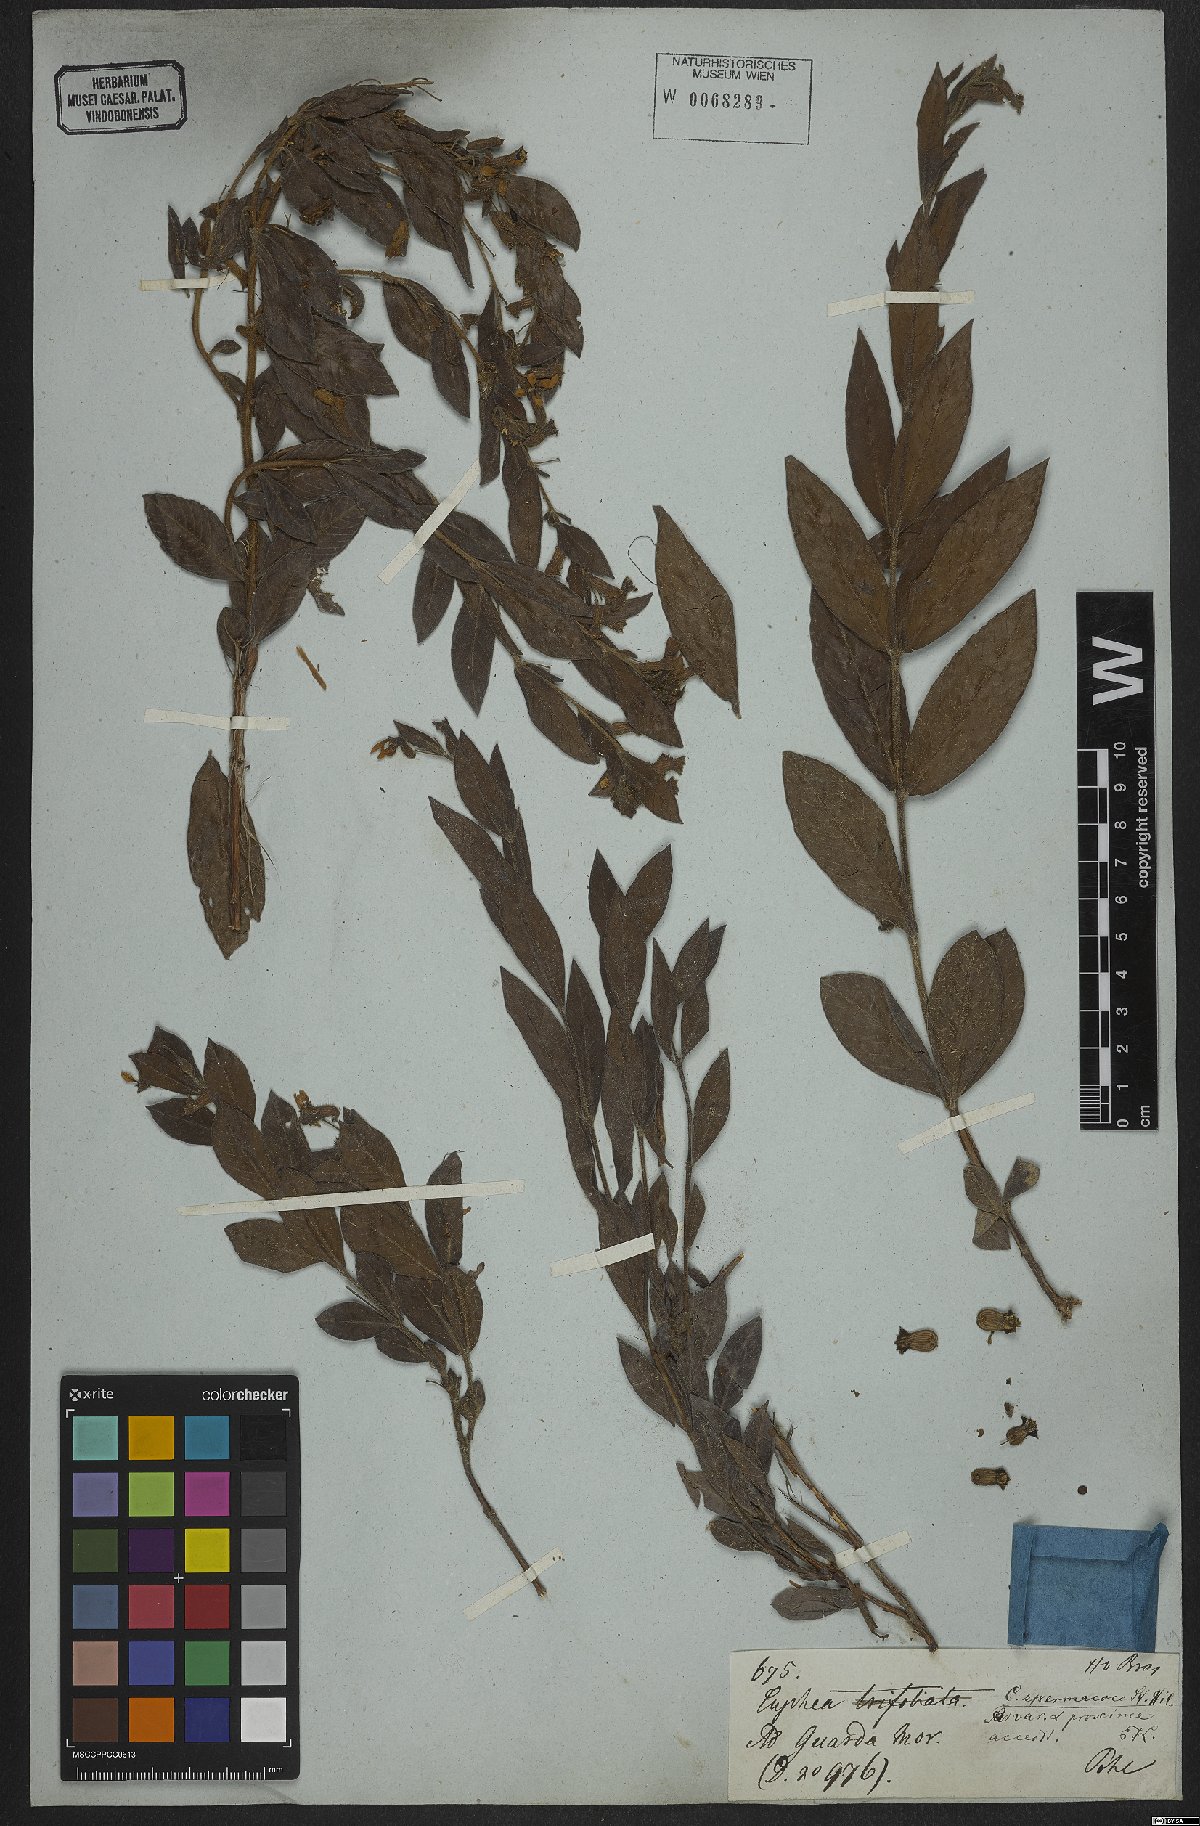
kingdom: Plantae
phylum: Tracheophyta
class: Magnoliopsida
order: Myrtales
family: Lythraceae
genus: Cuphea
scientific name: Cuphea spermacoce
